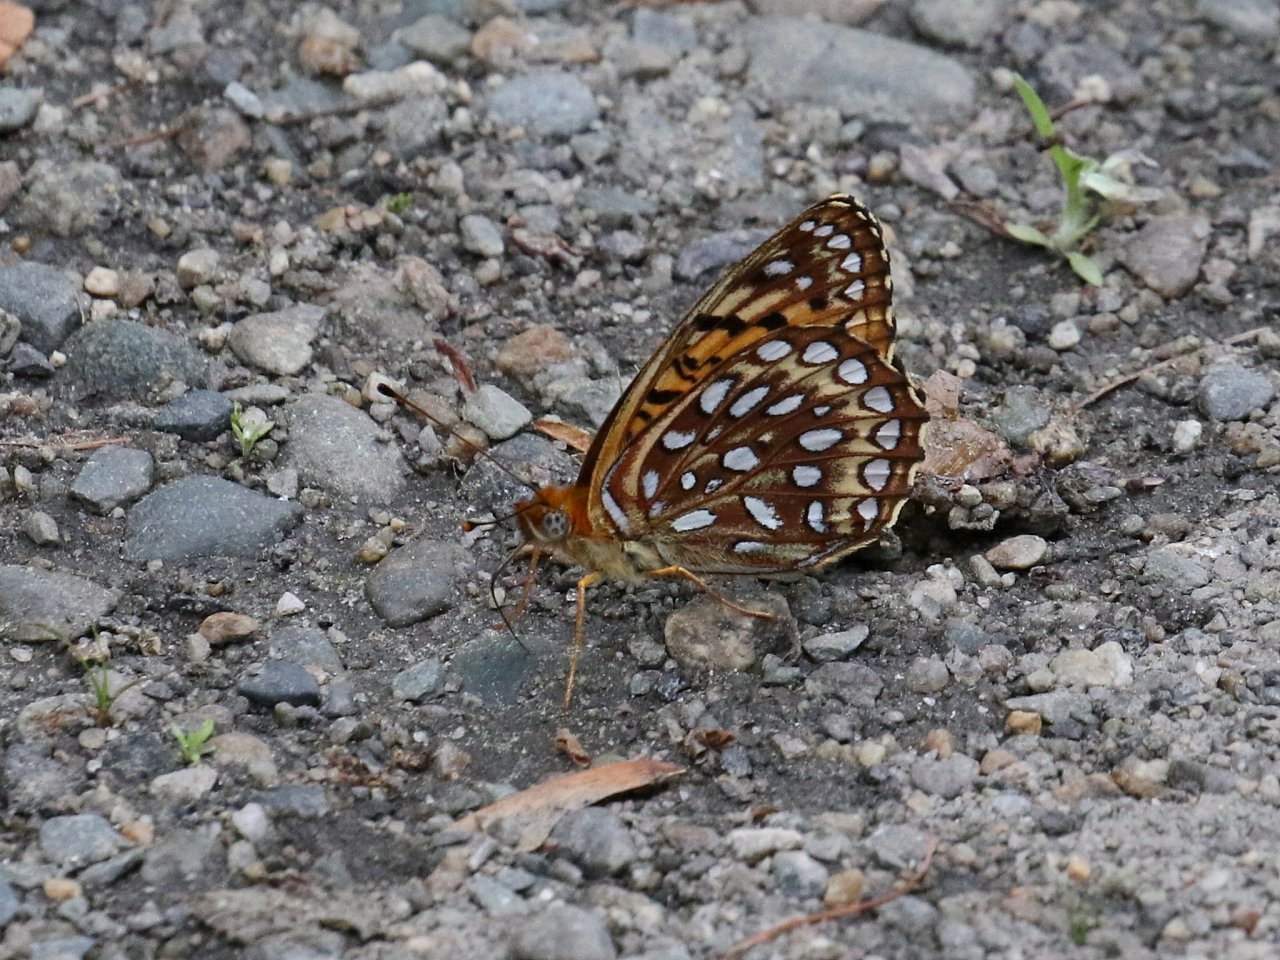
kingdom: Animalia
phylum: Arthropoda
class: Insecta
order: Lepidoptera
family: Nymphalidae
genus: Speyeria
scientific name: Speyeria atlantis
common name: Atlantis Fritillary
